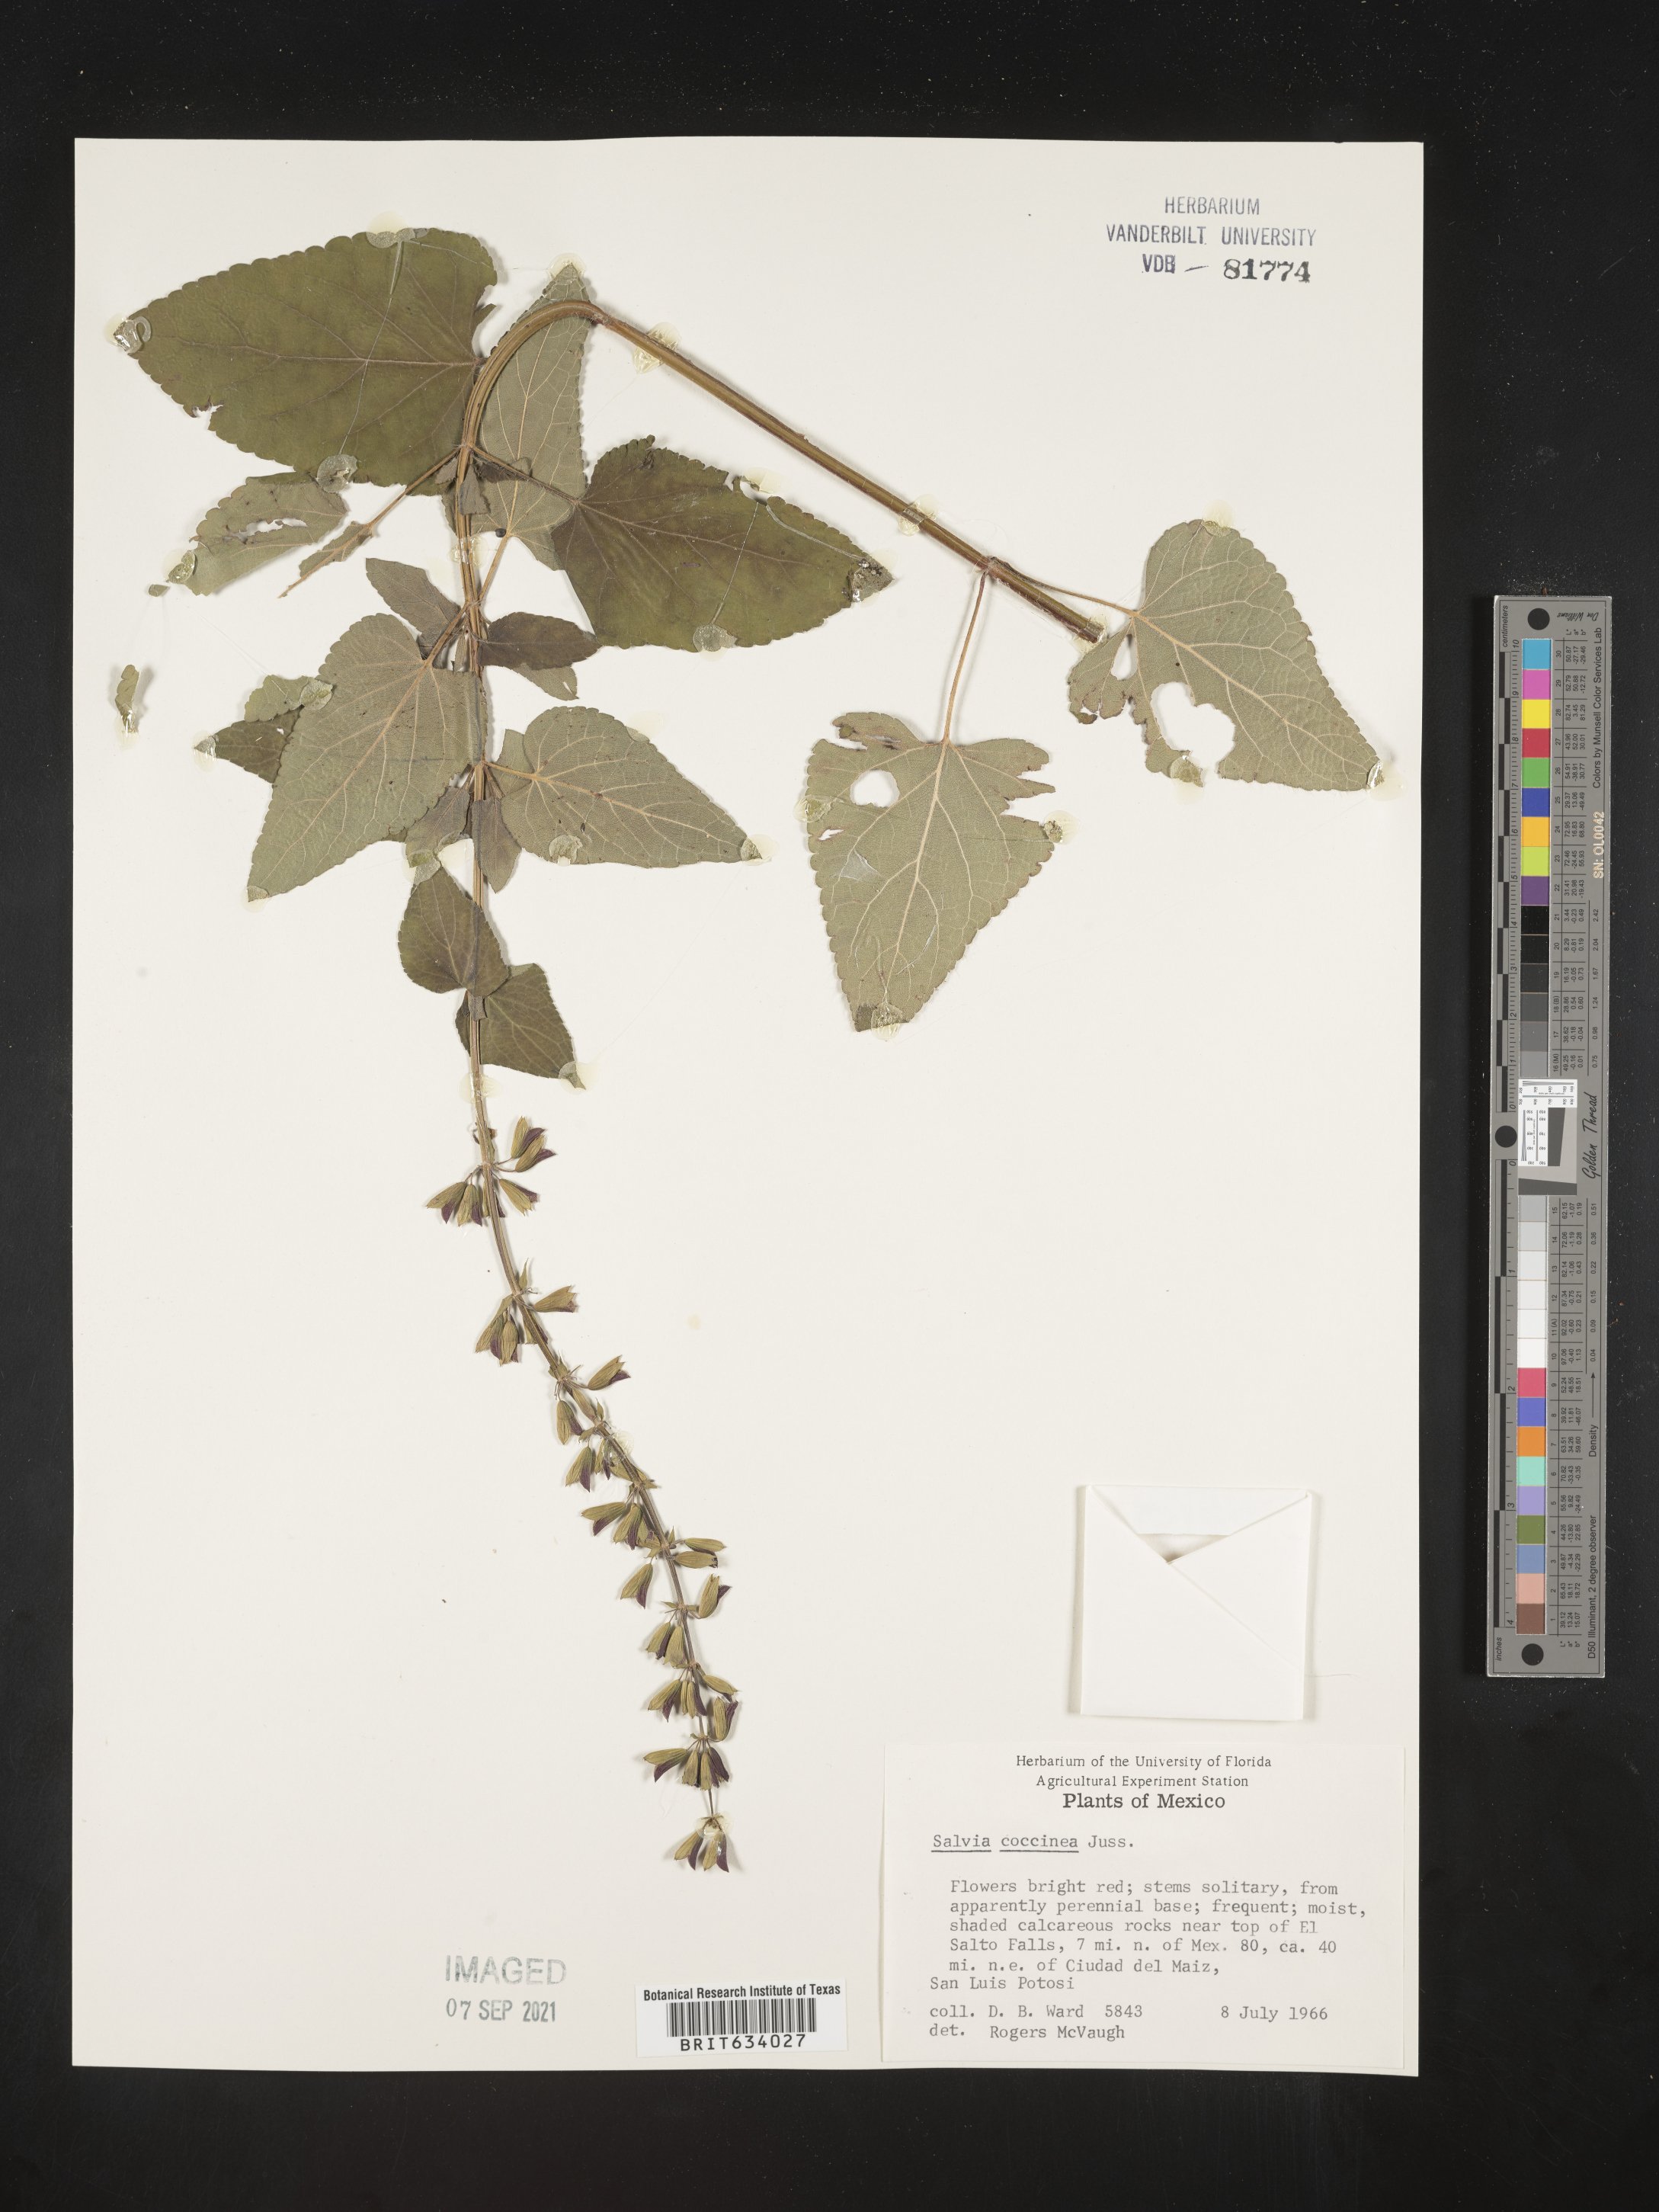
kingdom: Plantae
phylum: Tracheophyta
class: Magnoliopsida
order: Lamiales
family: Lamiaceae
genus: Salvia
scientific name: Salvia
